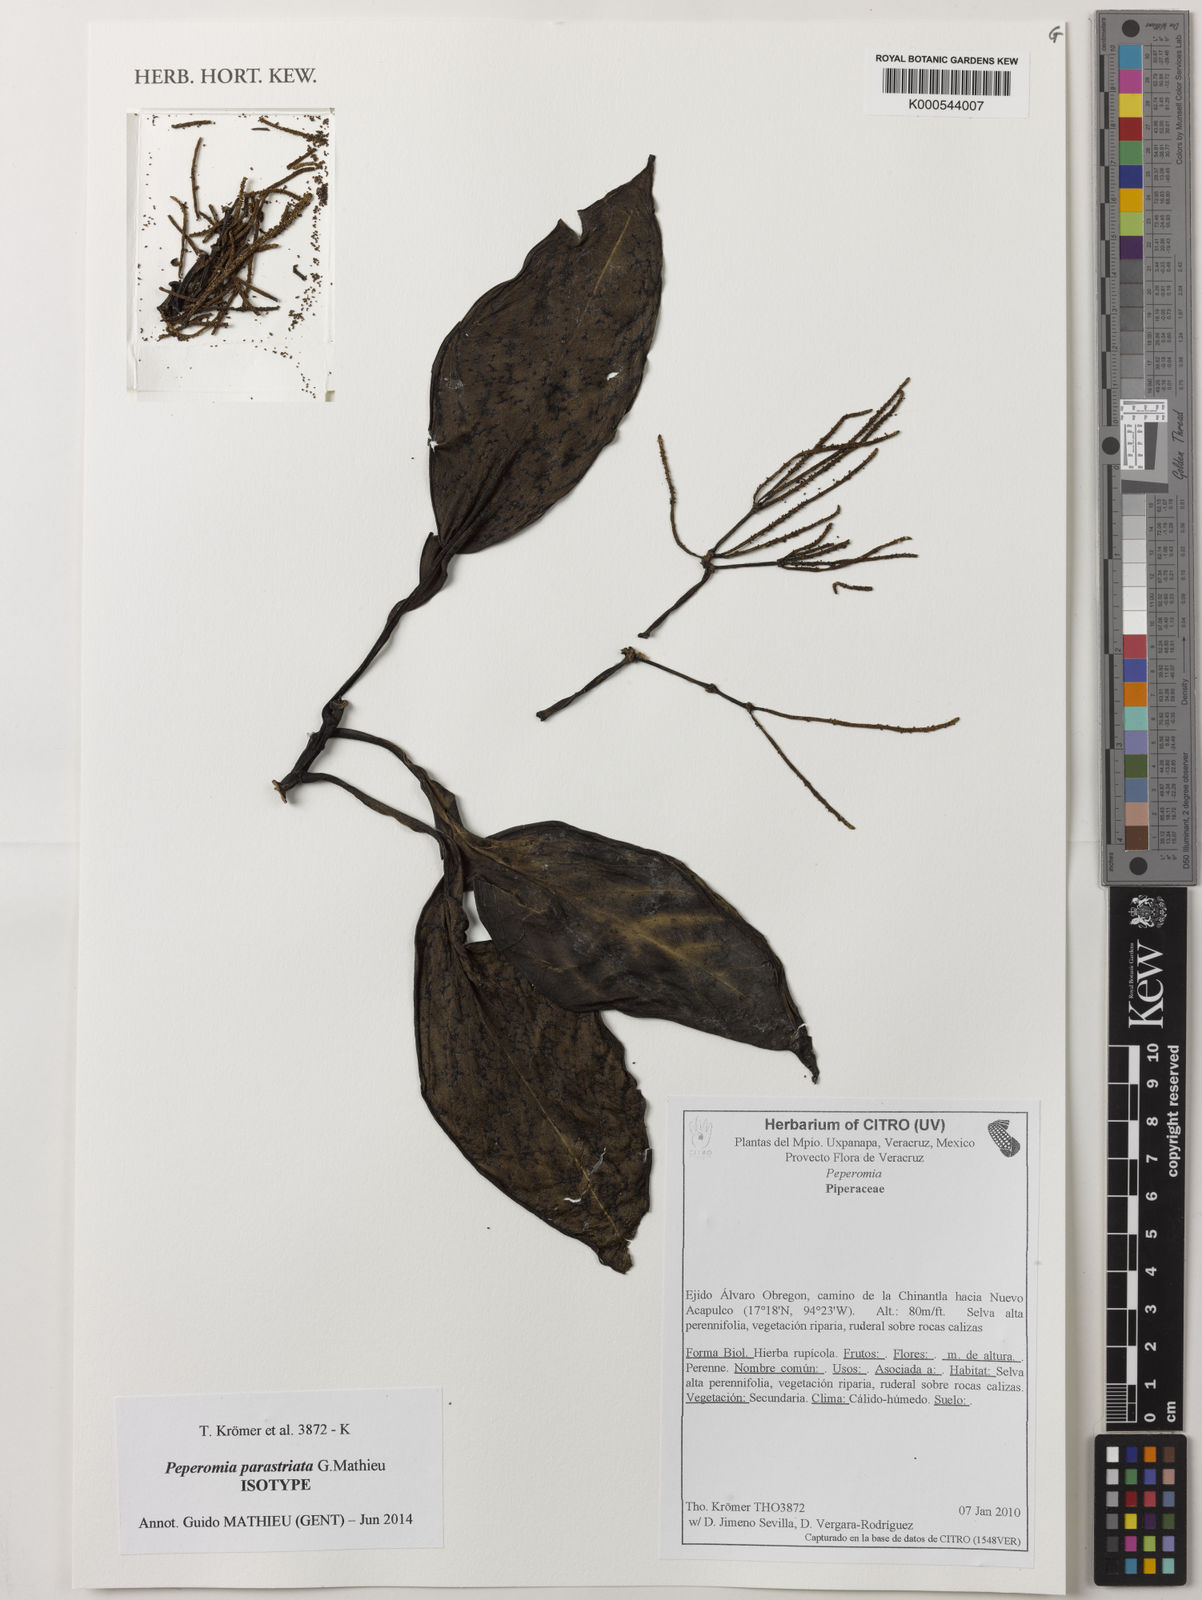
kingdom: Plantae
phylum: Tracheophyta
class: Magnoliopsida
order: Piperales
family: Piperaceae
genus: Peperomia
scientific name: Peperomia parastriata
